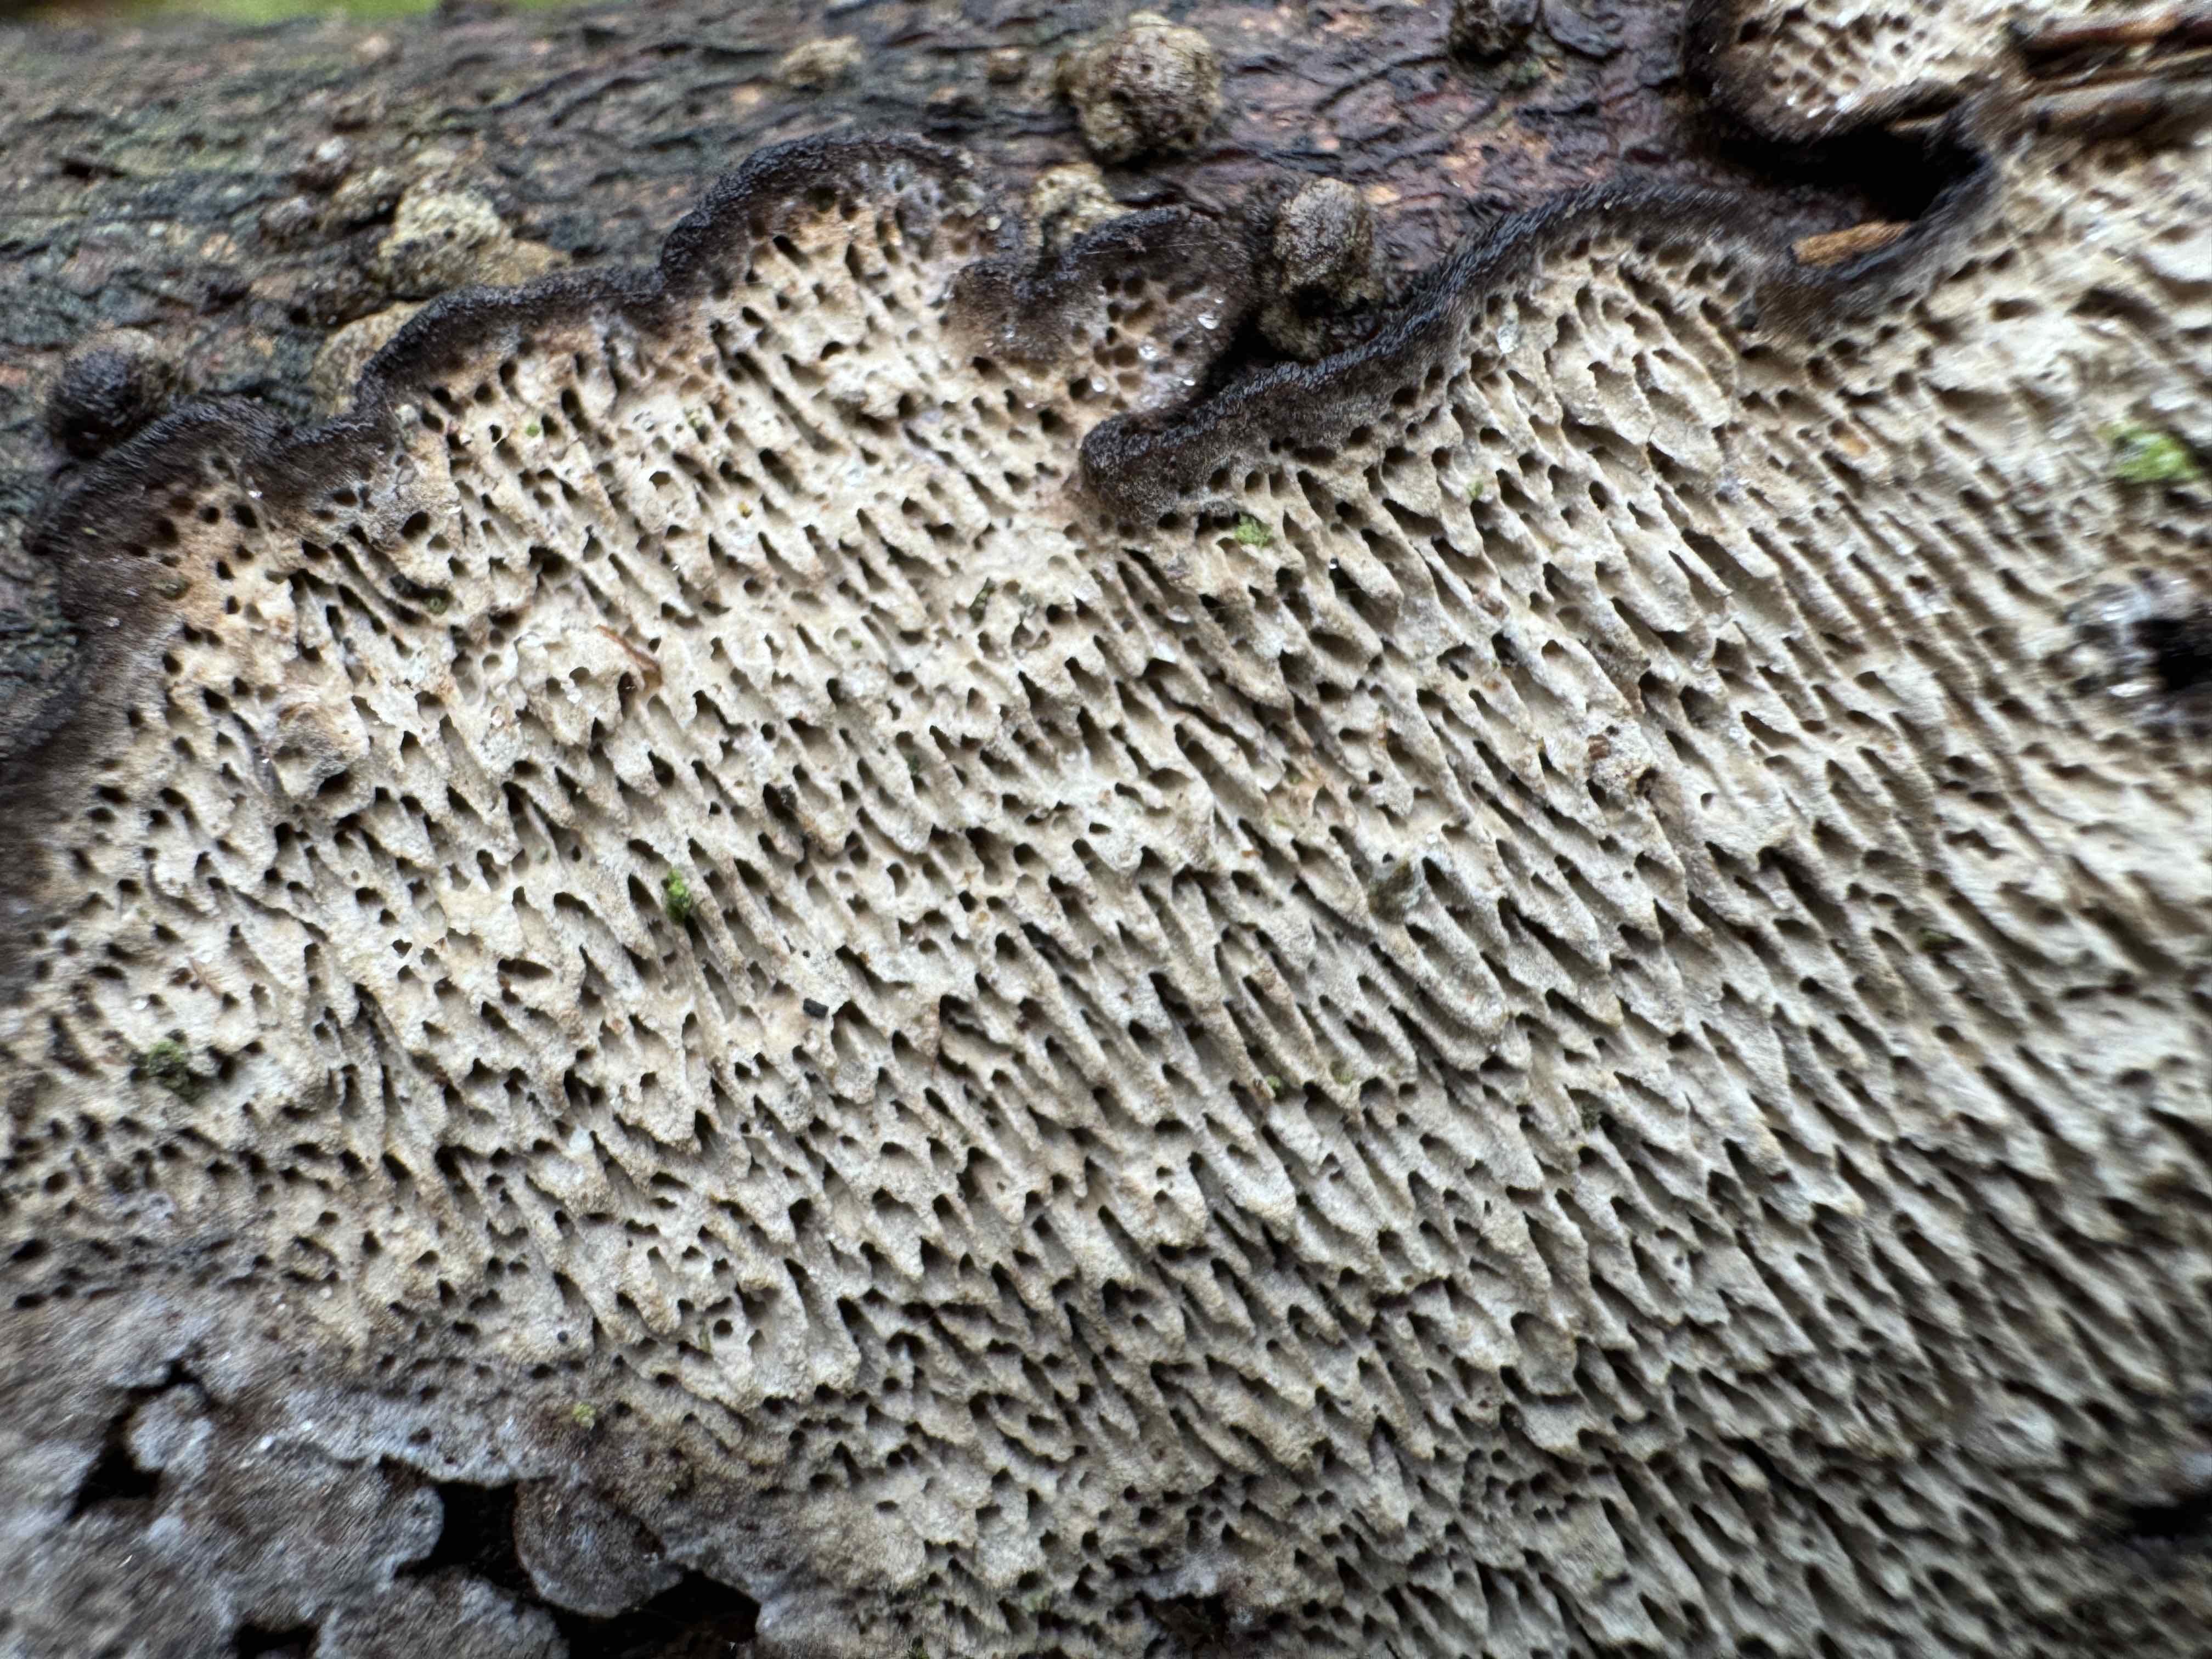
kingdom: Fungi
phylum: Basidiomycota
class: Agaricomycetes
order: Polyporales
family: Polyporaceae
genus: Podofomes
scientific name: Podofomes mollis
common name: blød begporesvamp
